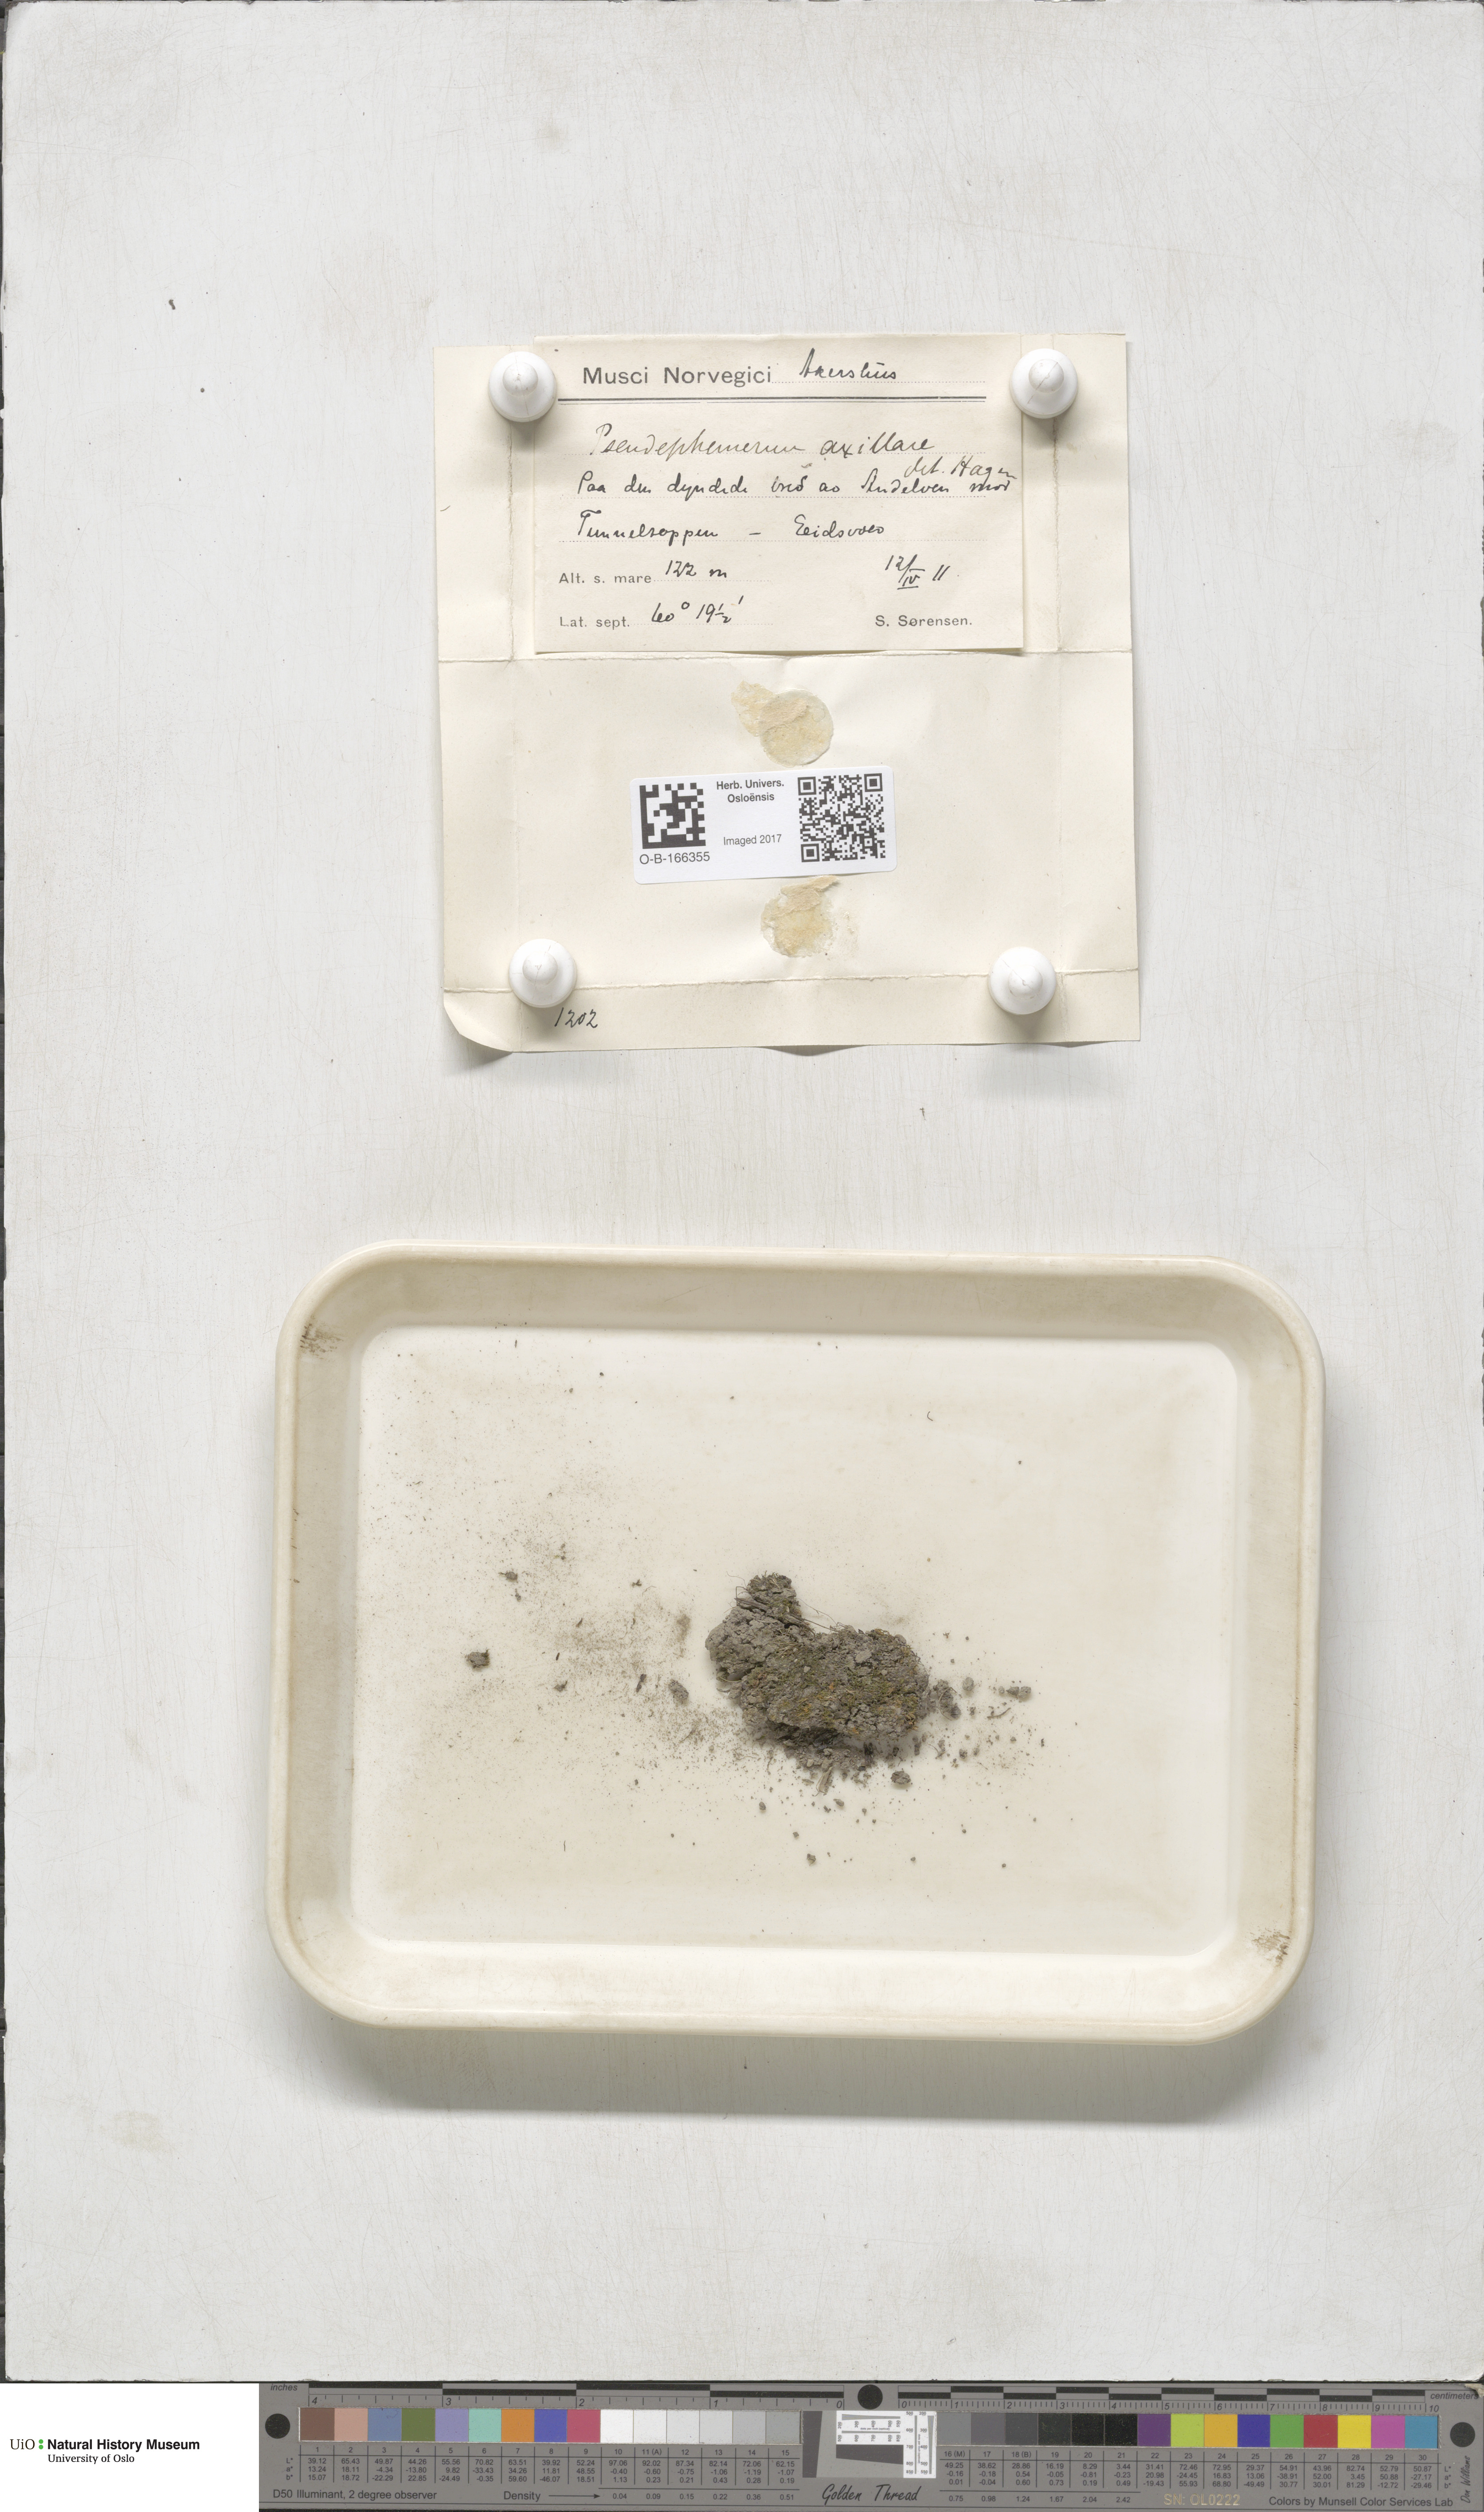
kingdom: Plantae
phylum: Bryophyta
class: Bryopsida
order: Dicranales
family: Ditrichaceae
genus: Pseudephemerum
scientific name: Pseudephemerum nitidum
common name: Delicate earth-moss
